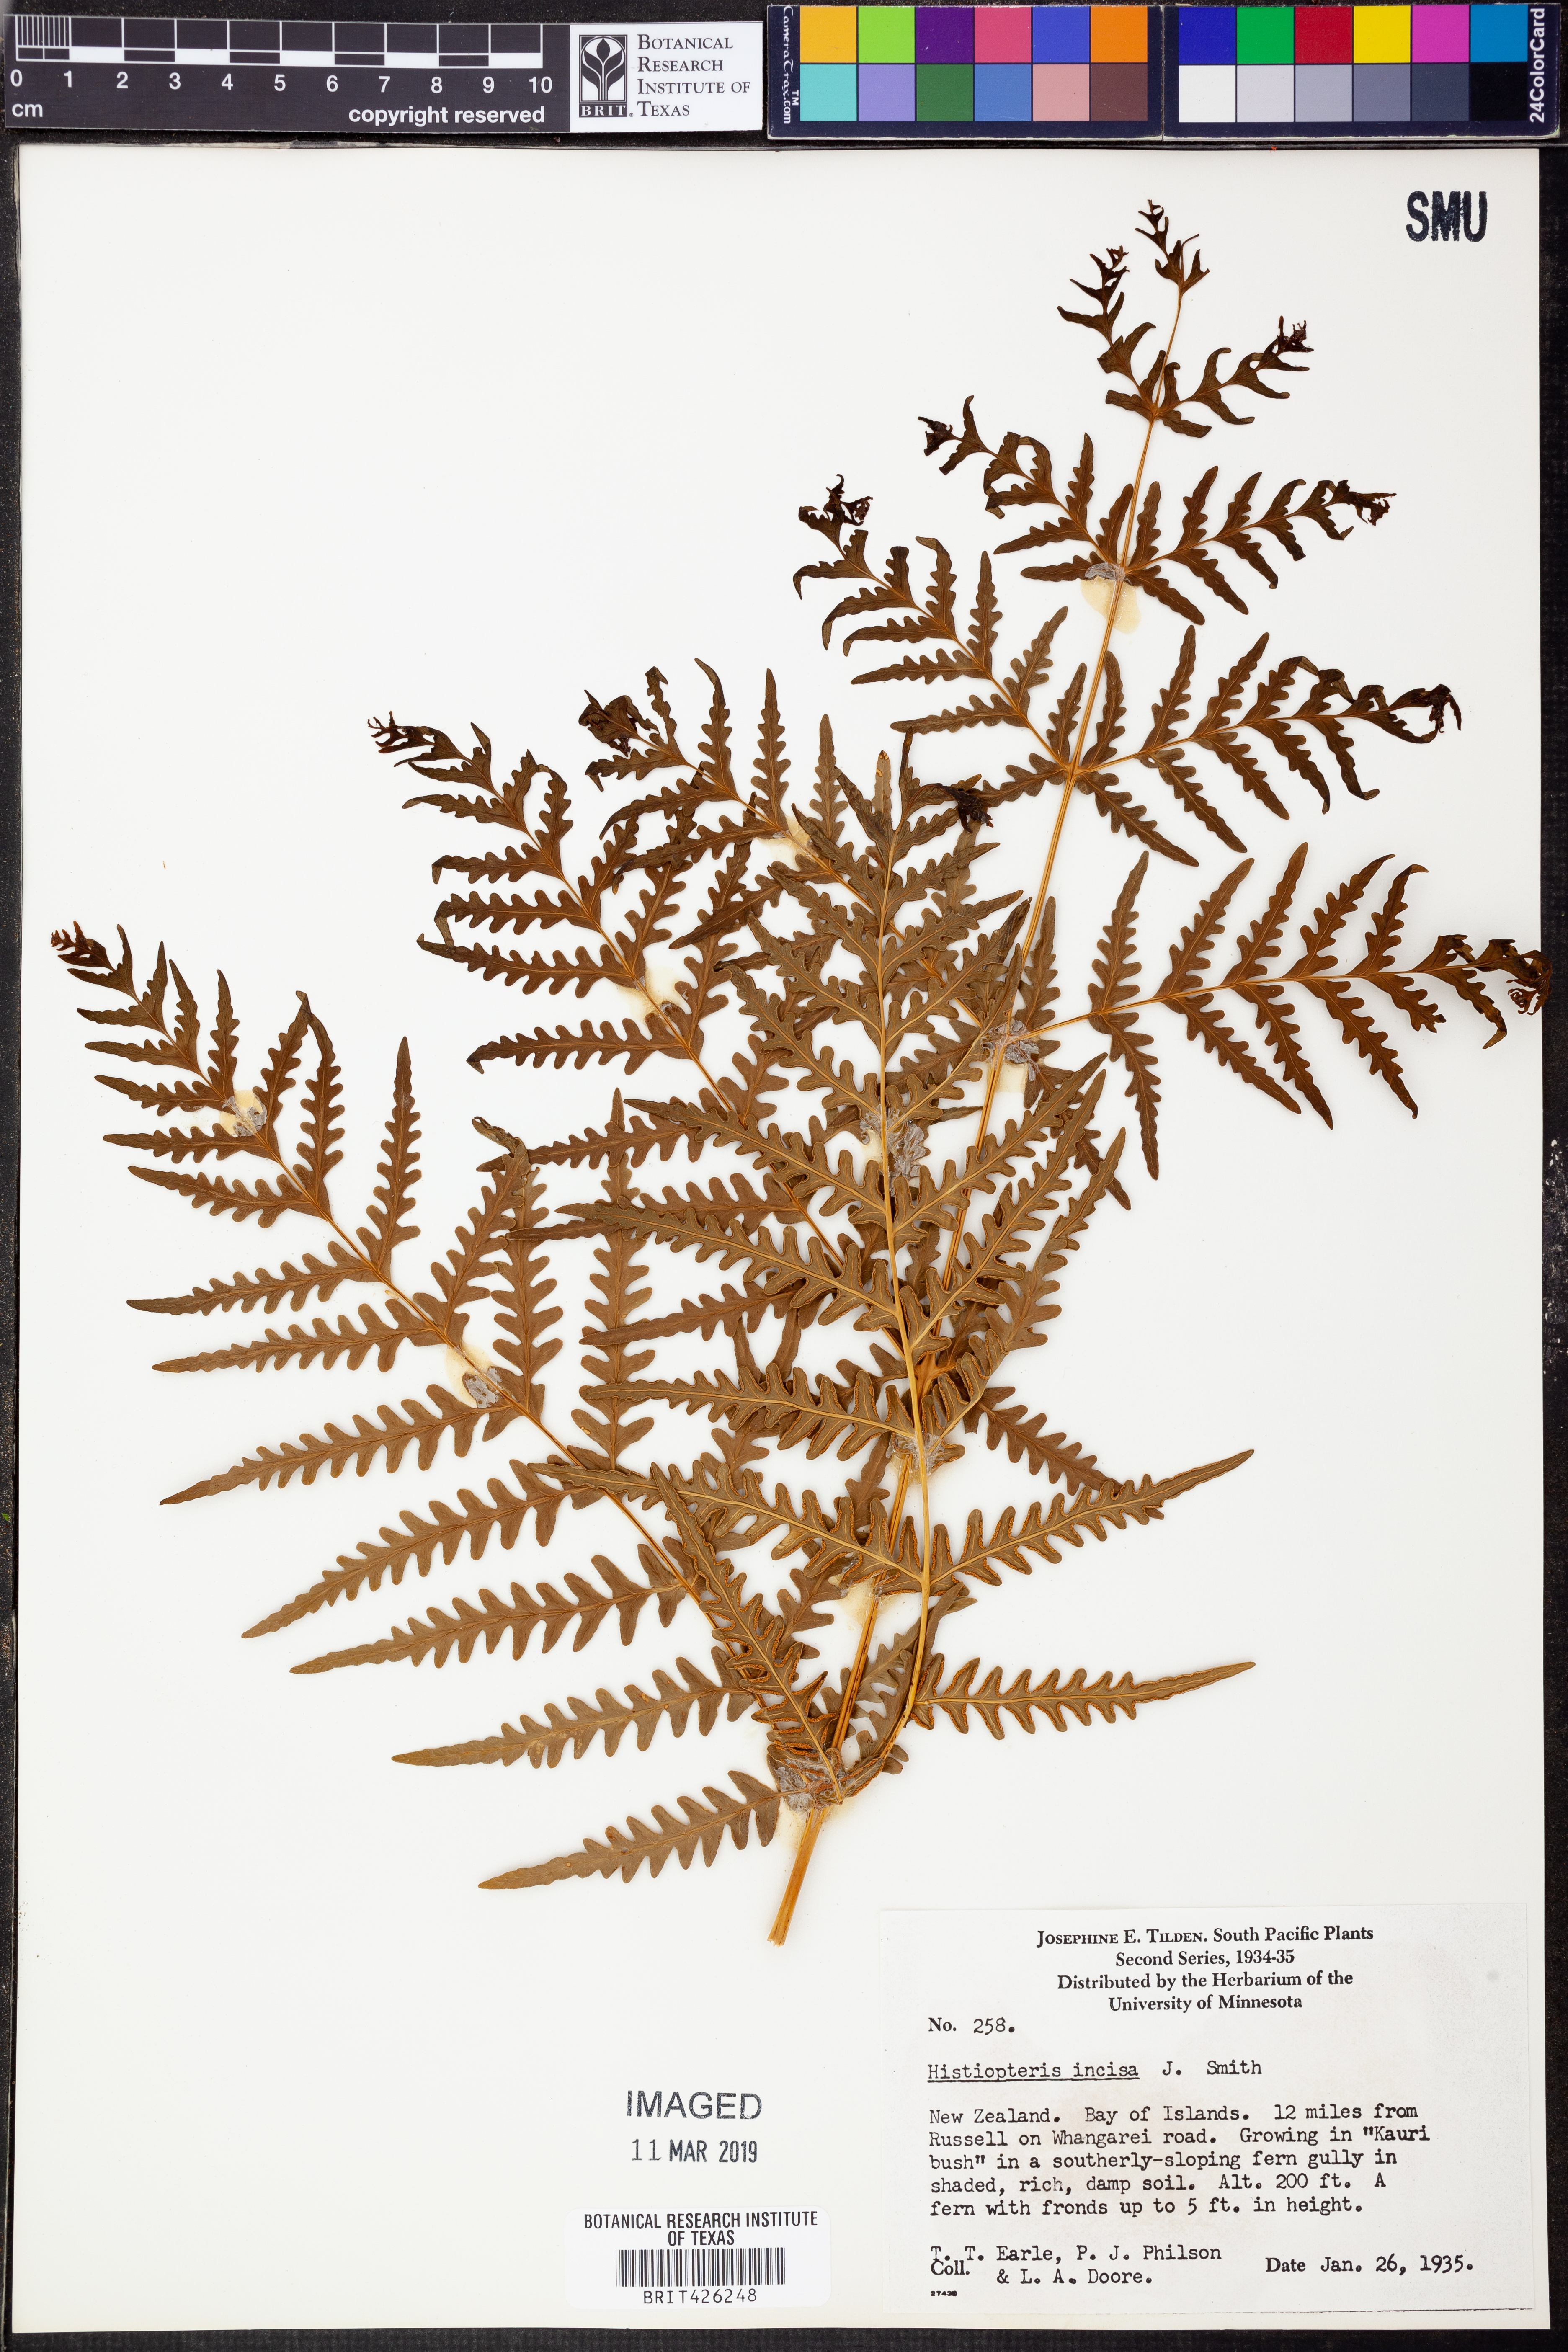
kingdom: Plantae
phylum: Tracheophyta
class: Polypodiopsida
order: Polypodiales
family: Dennstaedtiaceae
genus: Histiopteris
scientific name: Histiopteris incisa
